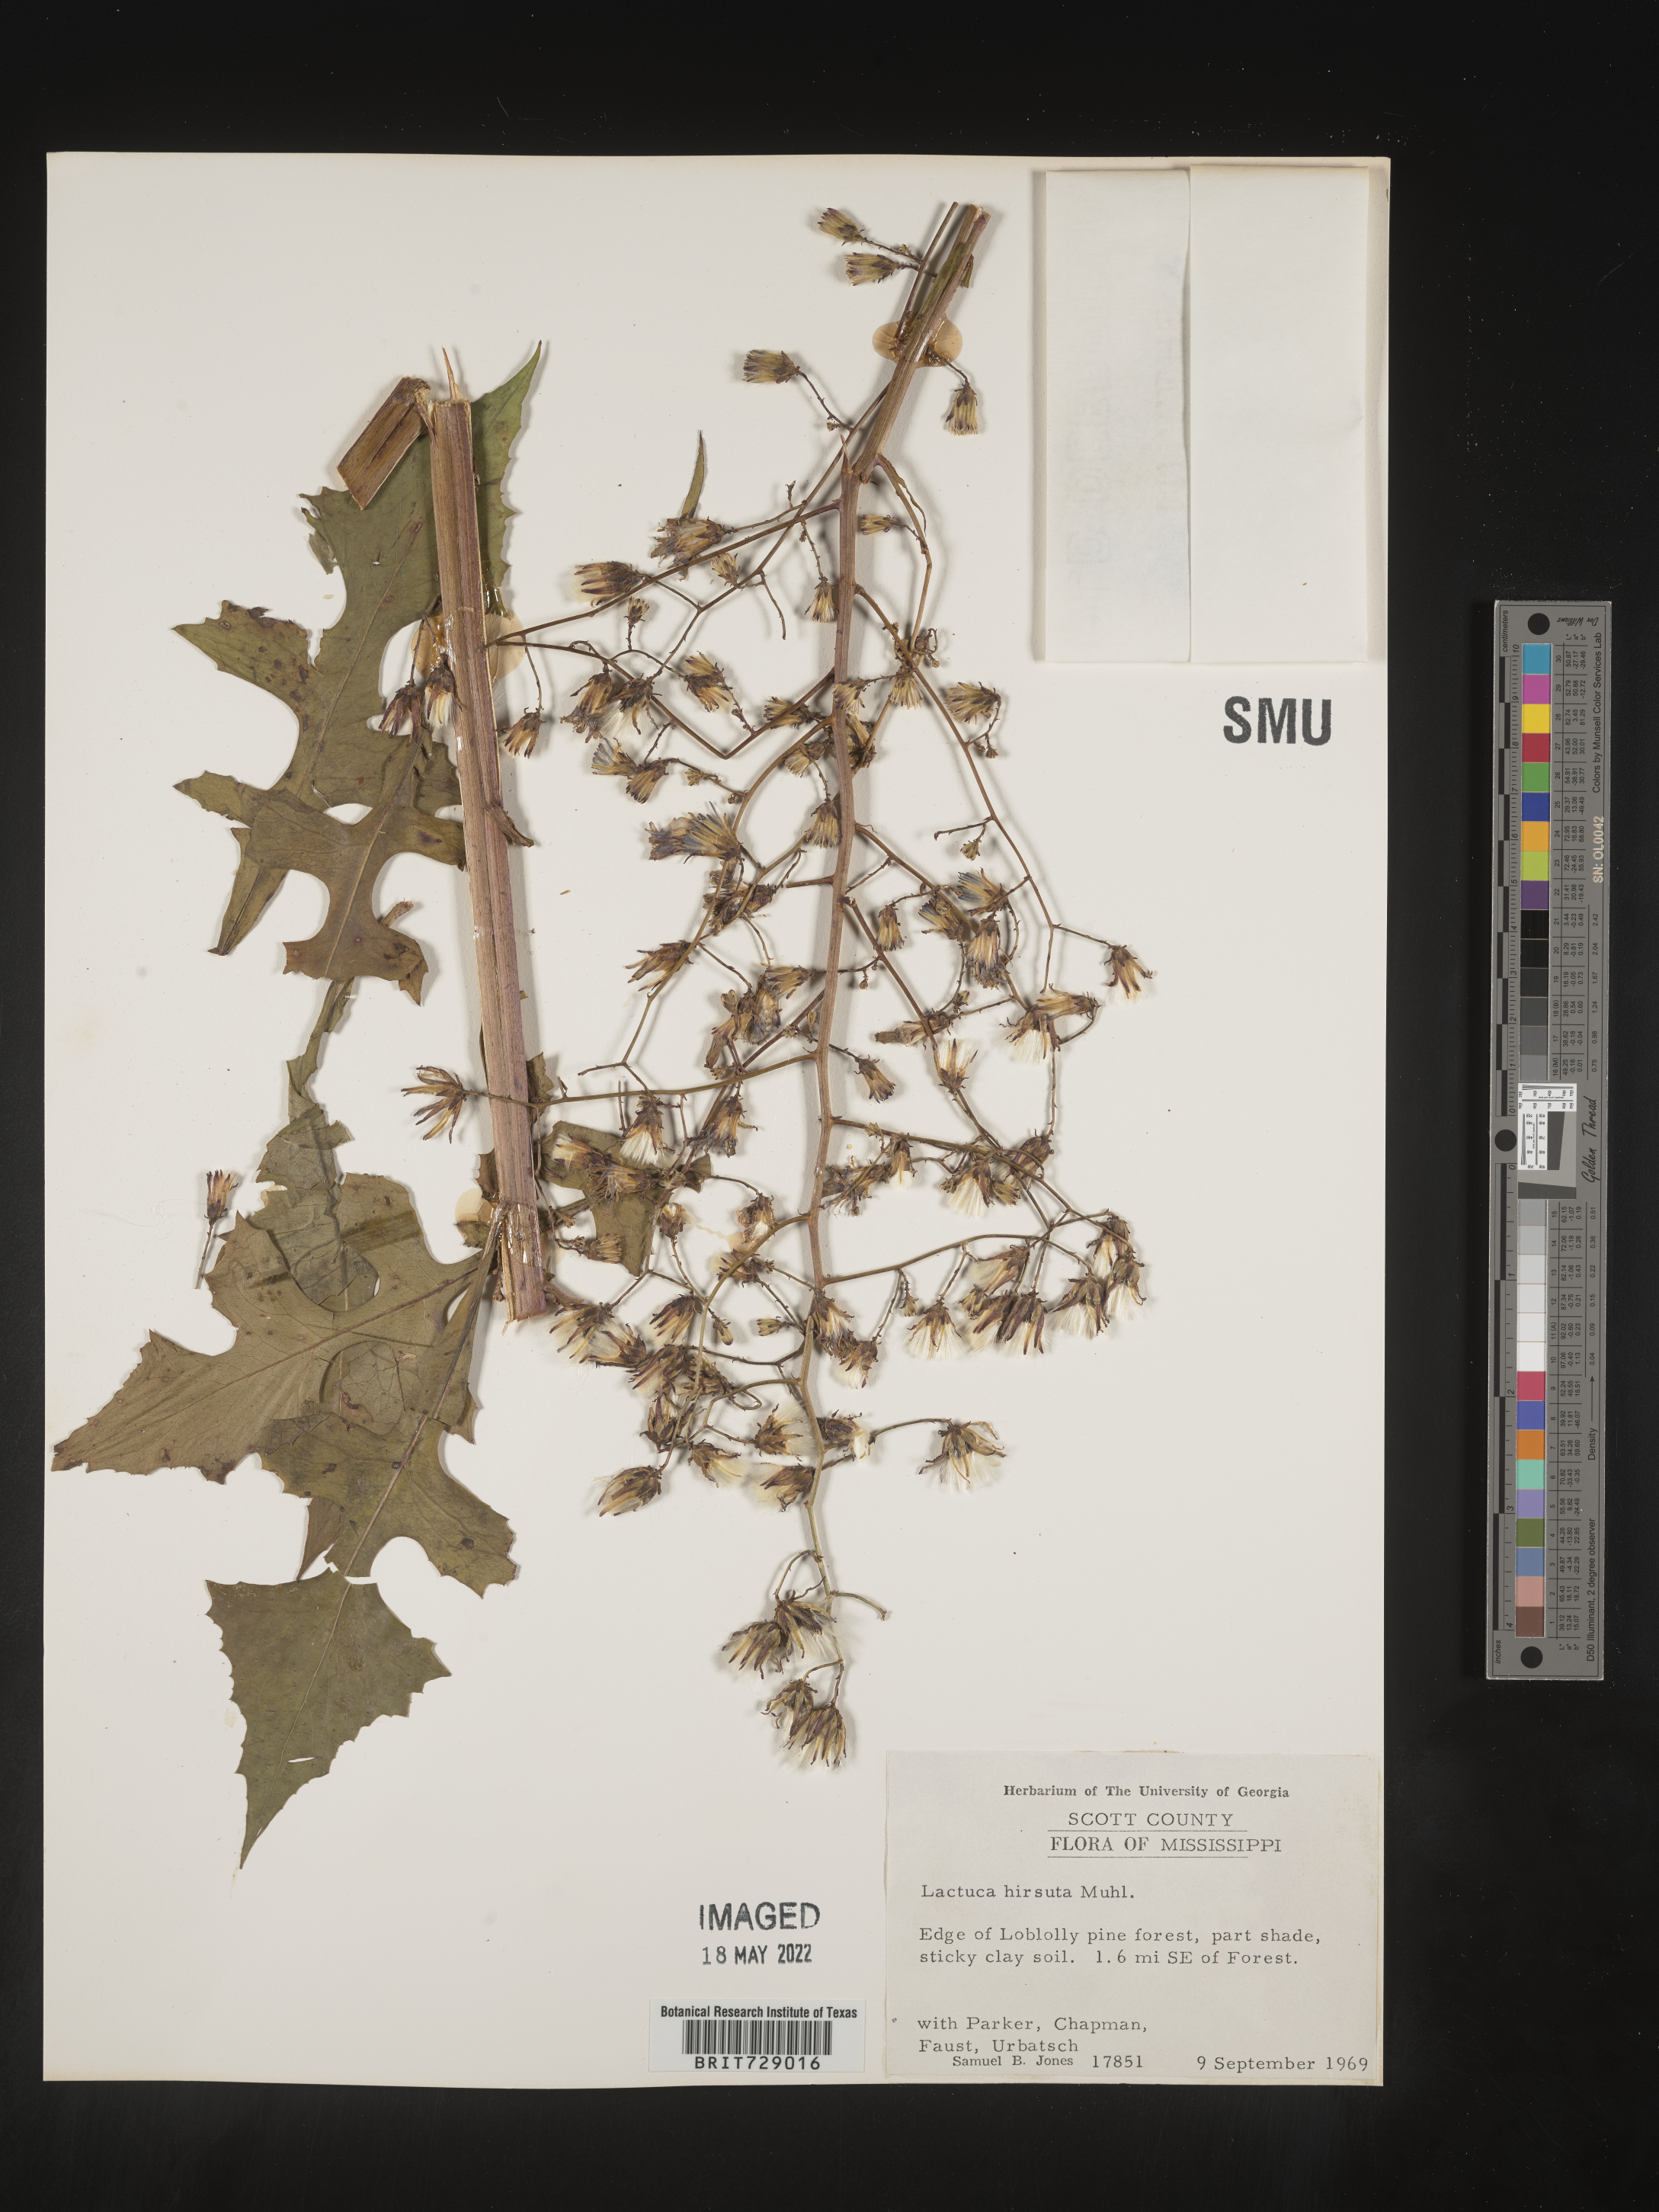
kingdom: Plantae
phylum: Tracheophyta
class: Magnoliopsida
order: Asterales
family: Asteraceae
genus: Lactuca
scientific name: Lactuca hirsuta
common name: Hairy lettuce
